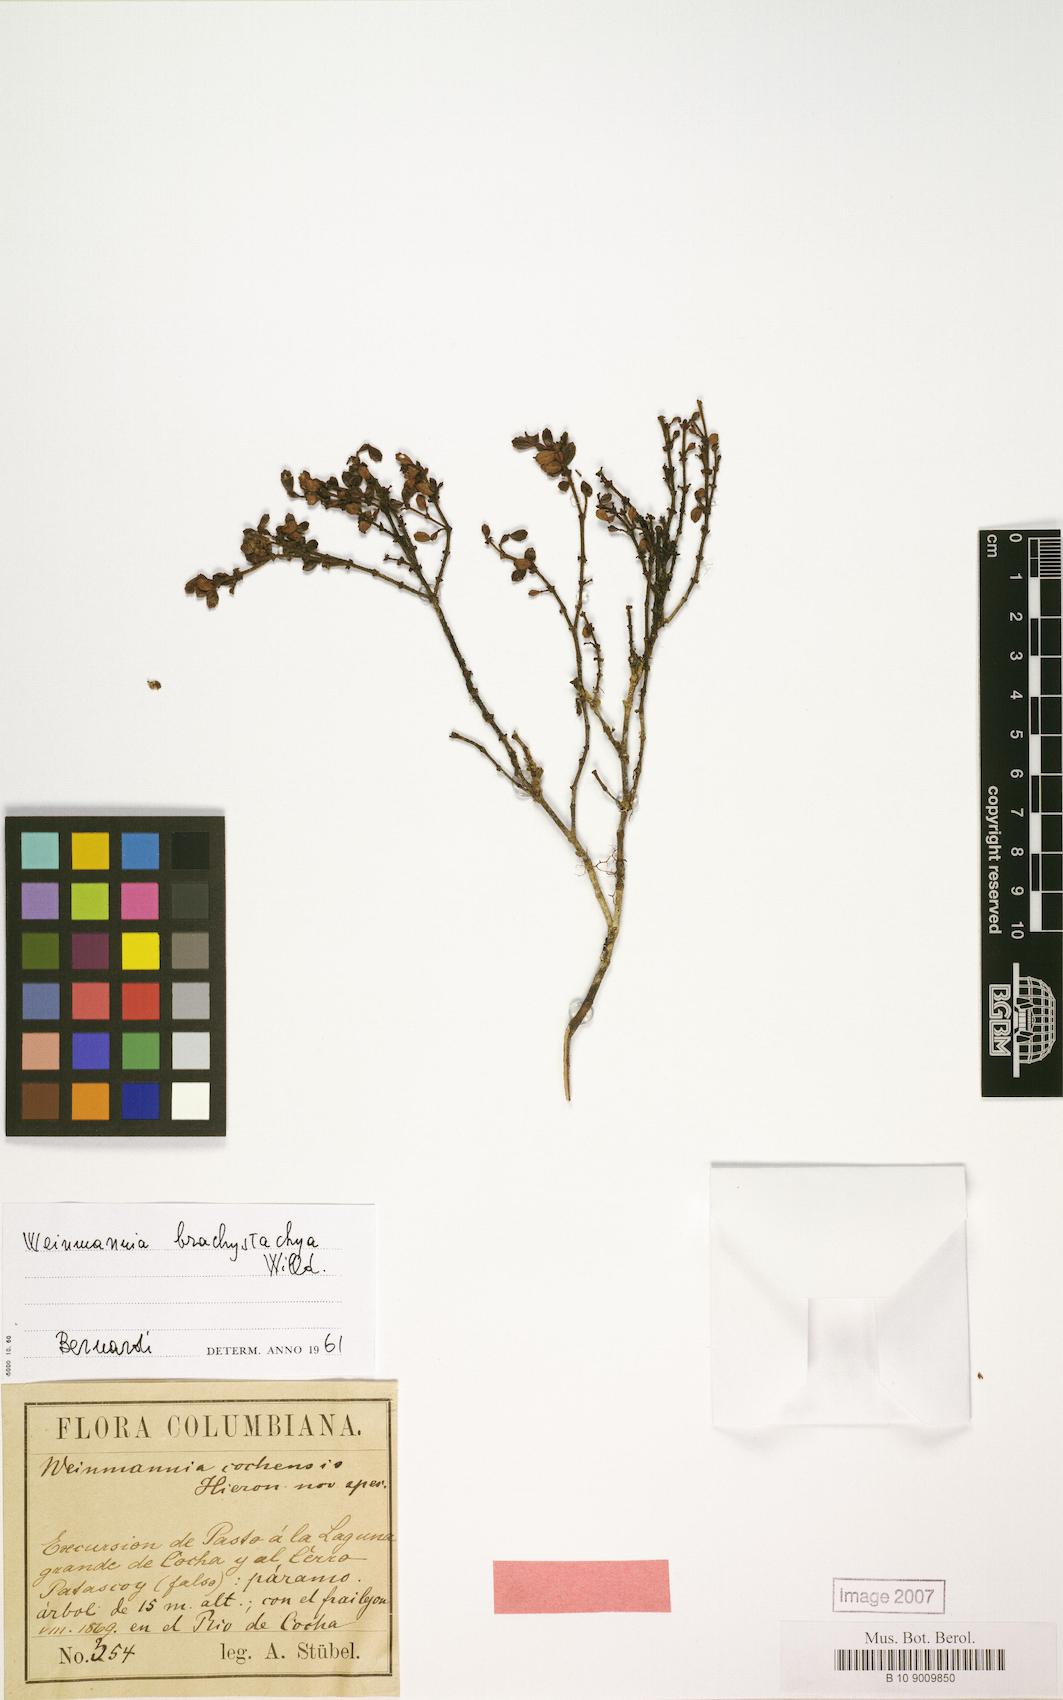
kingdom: Plantae
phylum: Tracheophyta
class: Magnoliopsida
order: Oxalidales
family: Cunoniaceae
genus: Weinmannia
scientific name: Weinmannia cochensis
